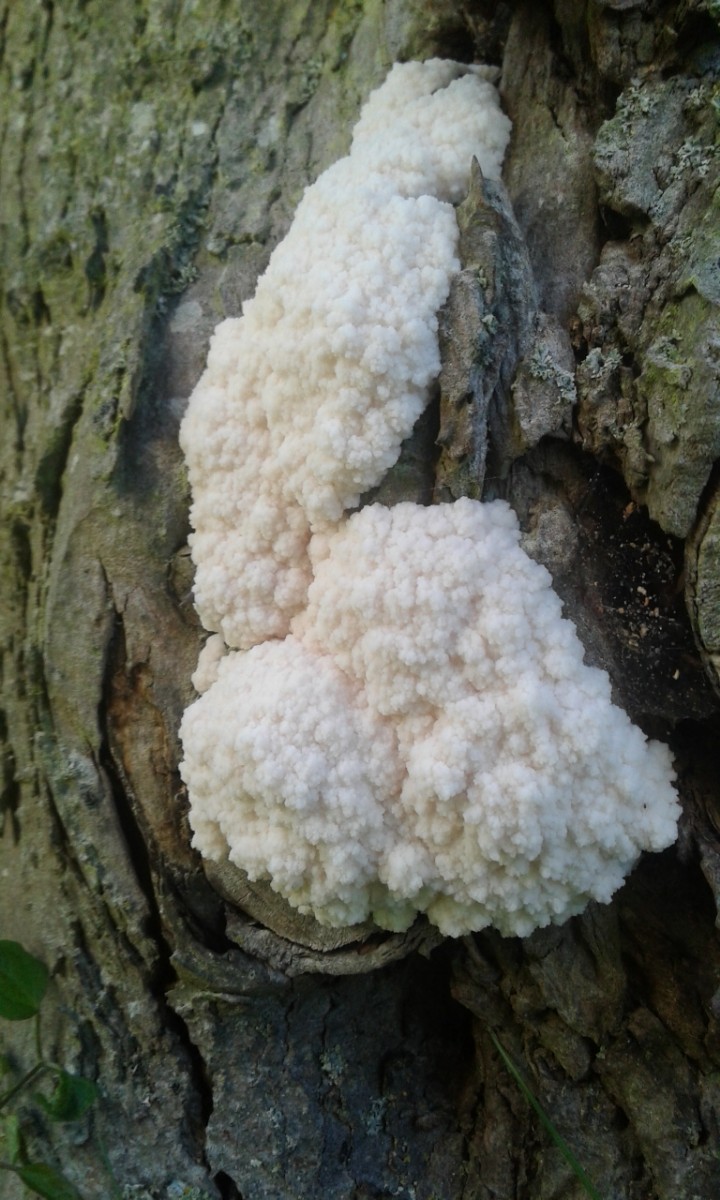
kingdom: Protozoa
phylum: Mycetozoa
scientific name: Mycetozoa
